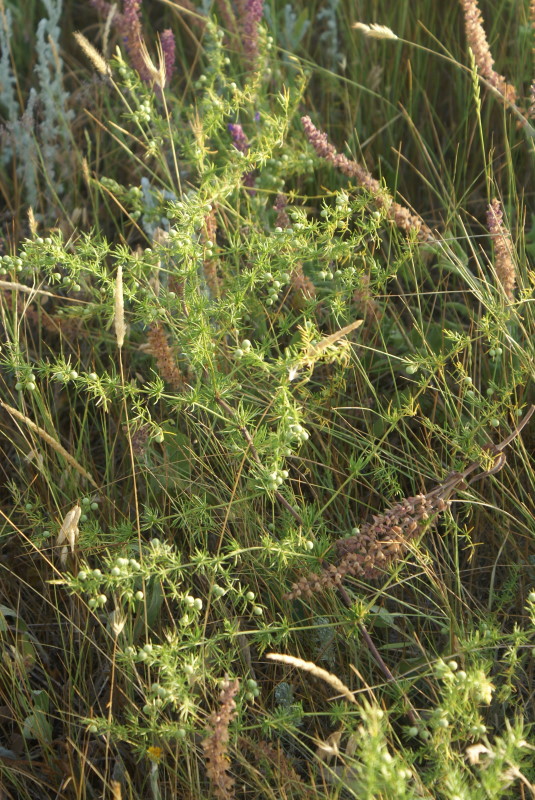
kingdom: Plantae
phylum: Tracheophyta
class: Liliopsida
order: Asparagales
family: Asparagaceae
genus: Asparagus
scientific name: Asparagus
